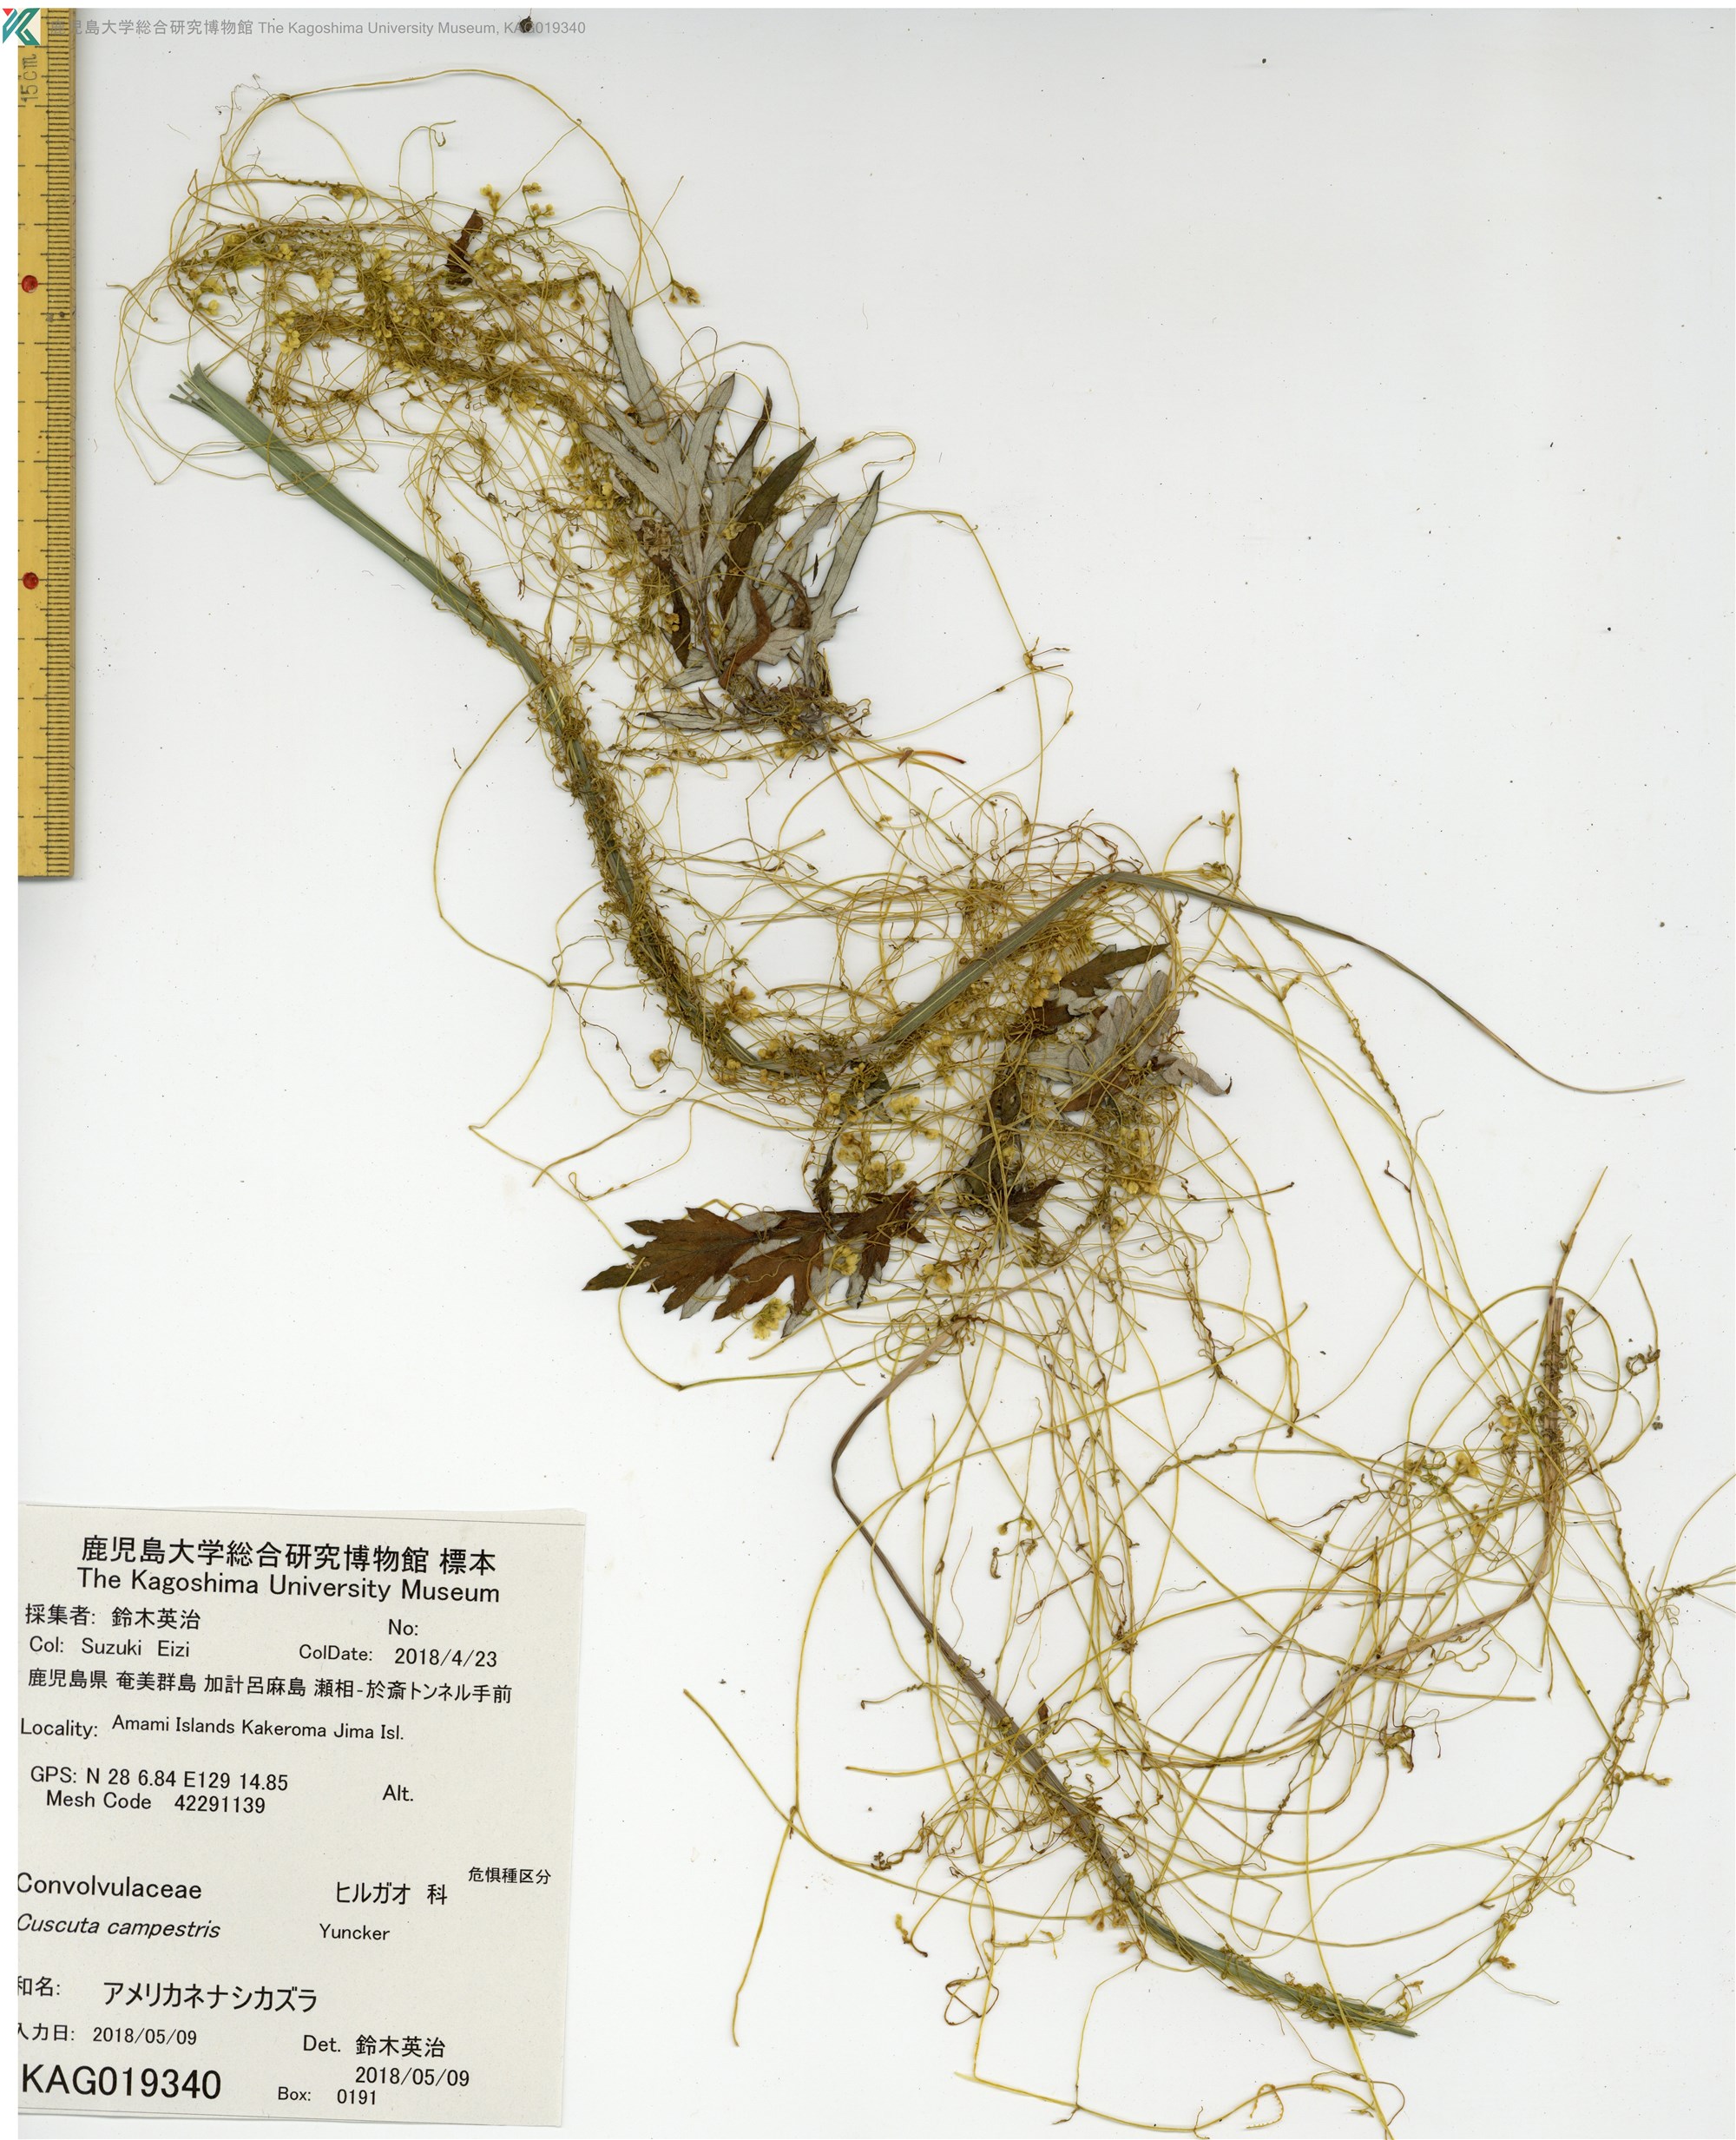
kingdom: Plantae
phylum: Tracheophyta
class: Magnoliopsida
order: Solanales
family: Convolvulaceae
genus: Cuscuta
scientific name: Cuscuta campestris
